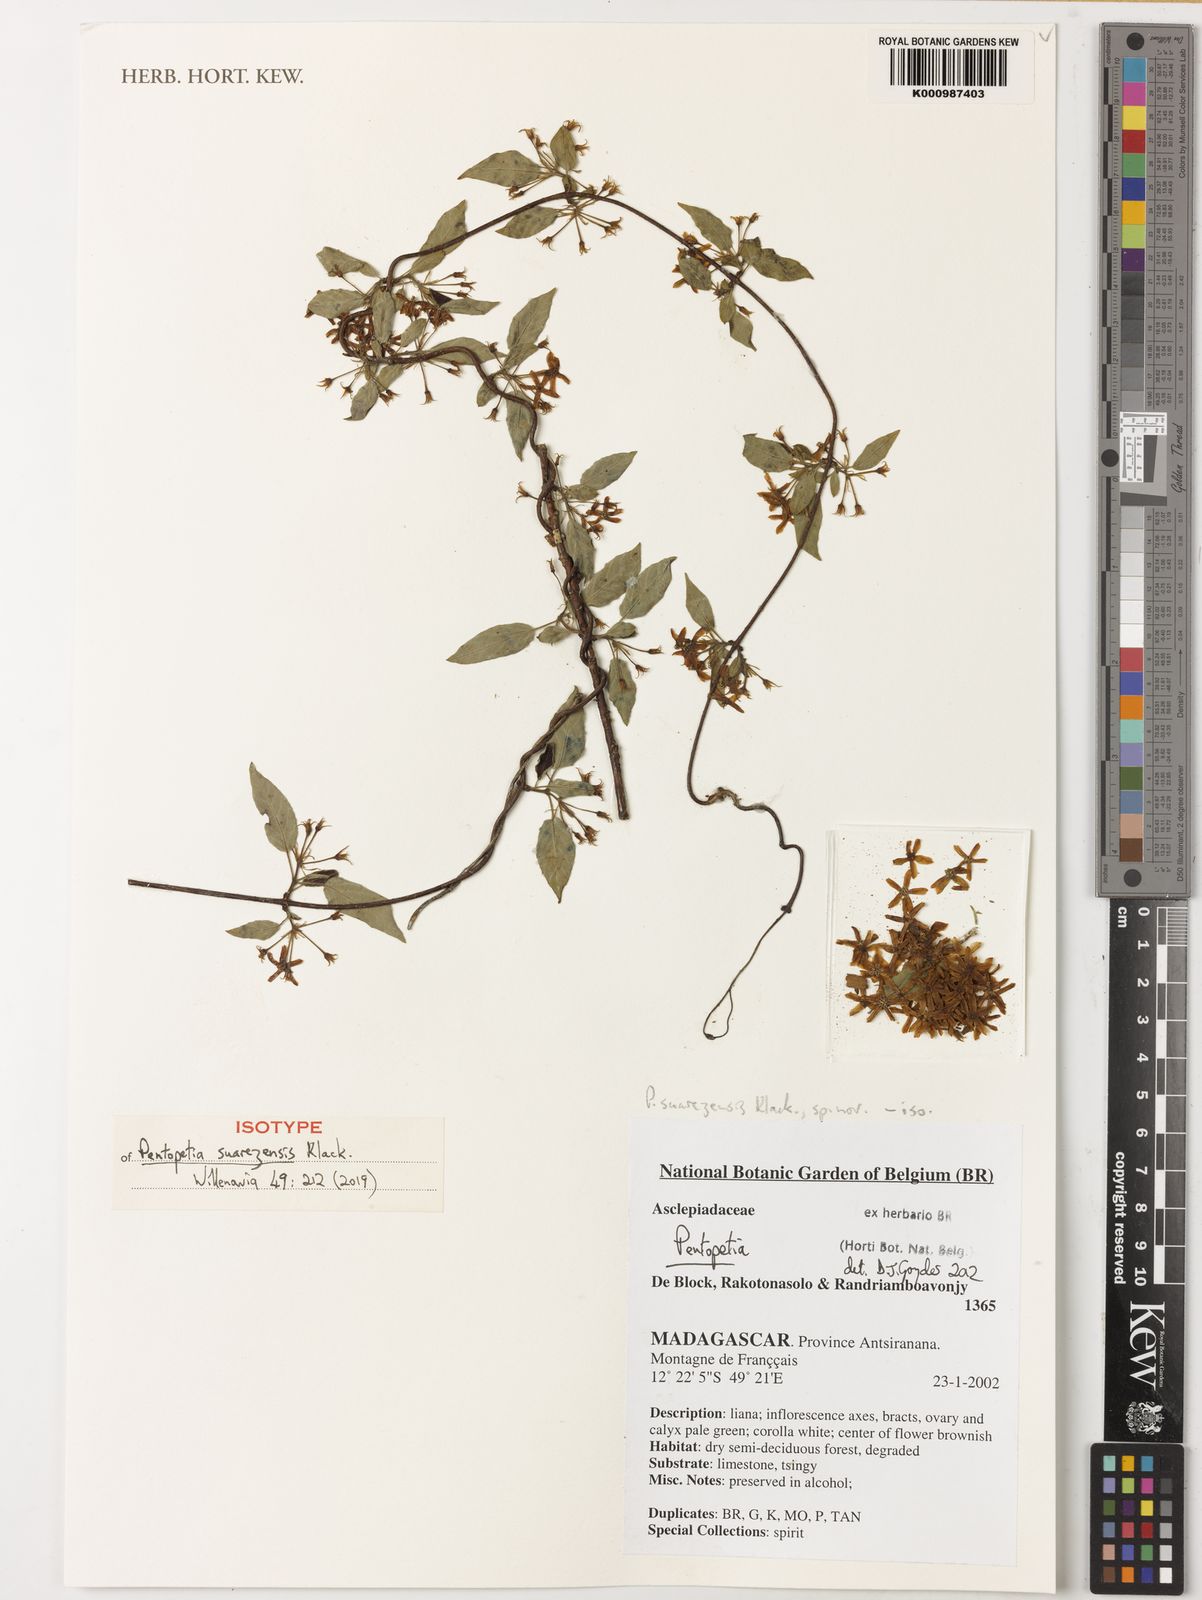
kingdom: Plantae
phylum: Tracheophyta
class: Magnoliopsida
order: Gentianales
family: Apocynaceae
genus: Pentopetia
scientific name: Pentopetia suarezensis
